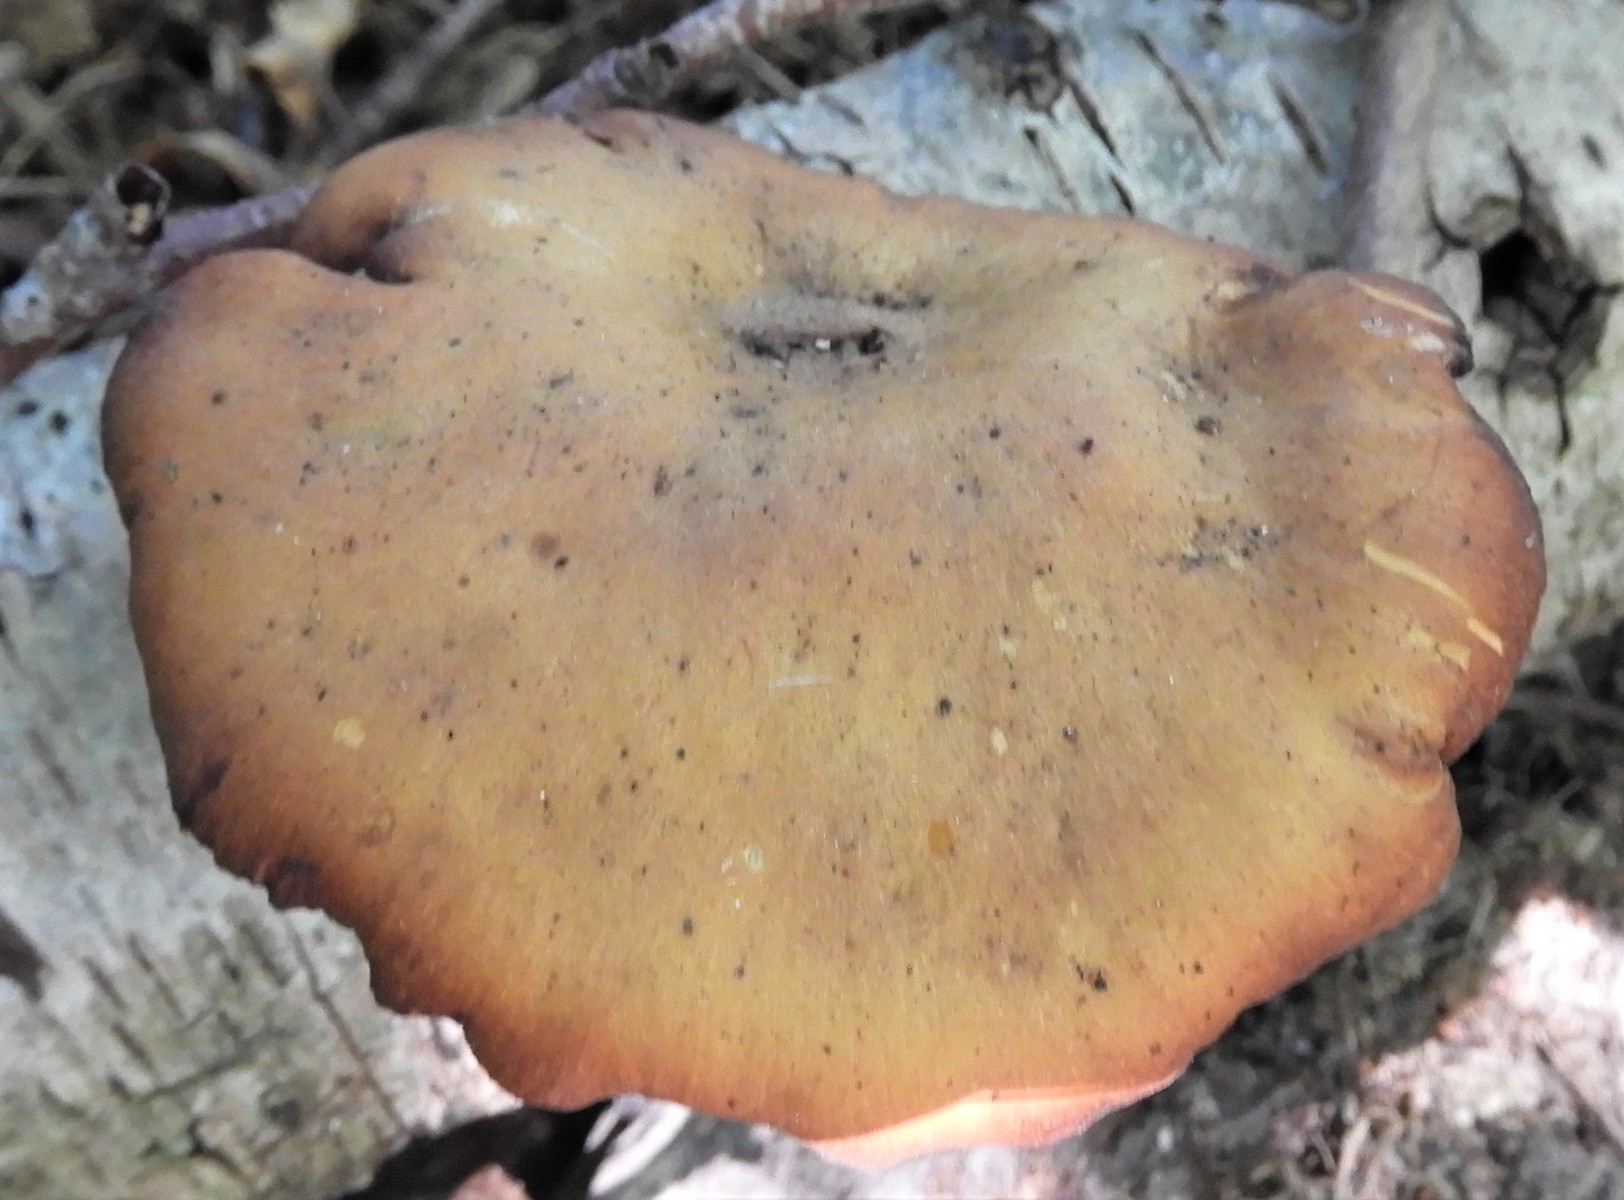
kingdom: Fungi
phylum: Basidiomycota
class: Agaricomycetes
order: Polyporales
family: Polyporaceae
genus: Cerioporus
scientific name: Cerioporus varius
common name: foranderlig stilkporesvamp
